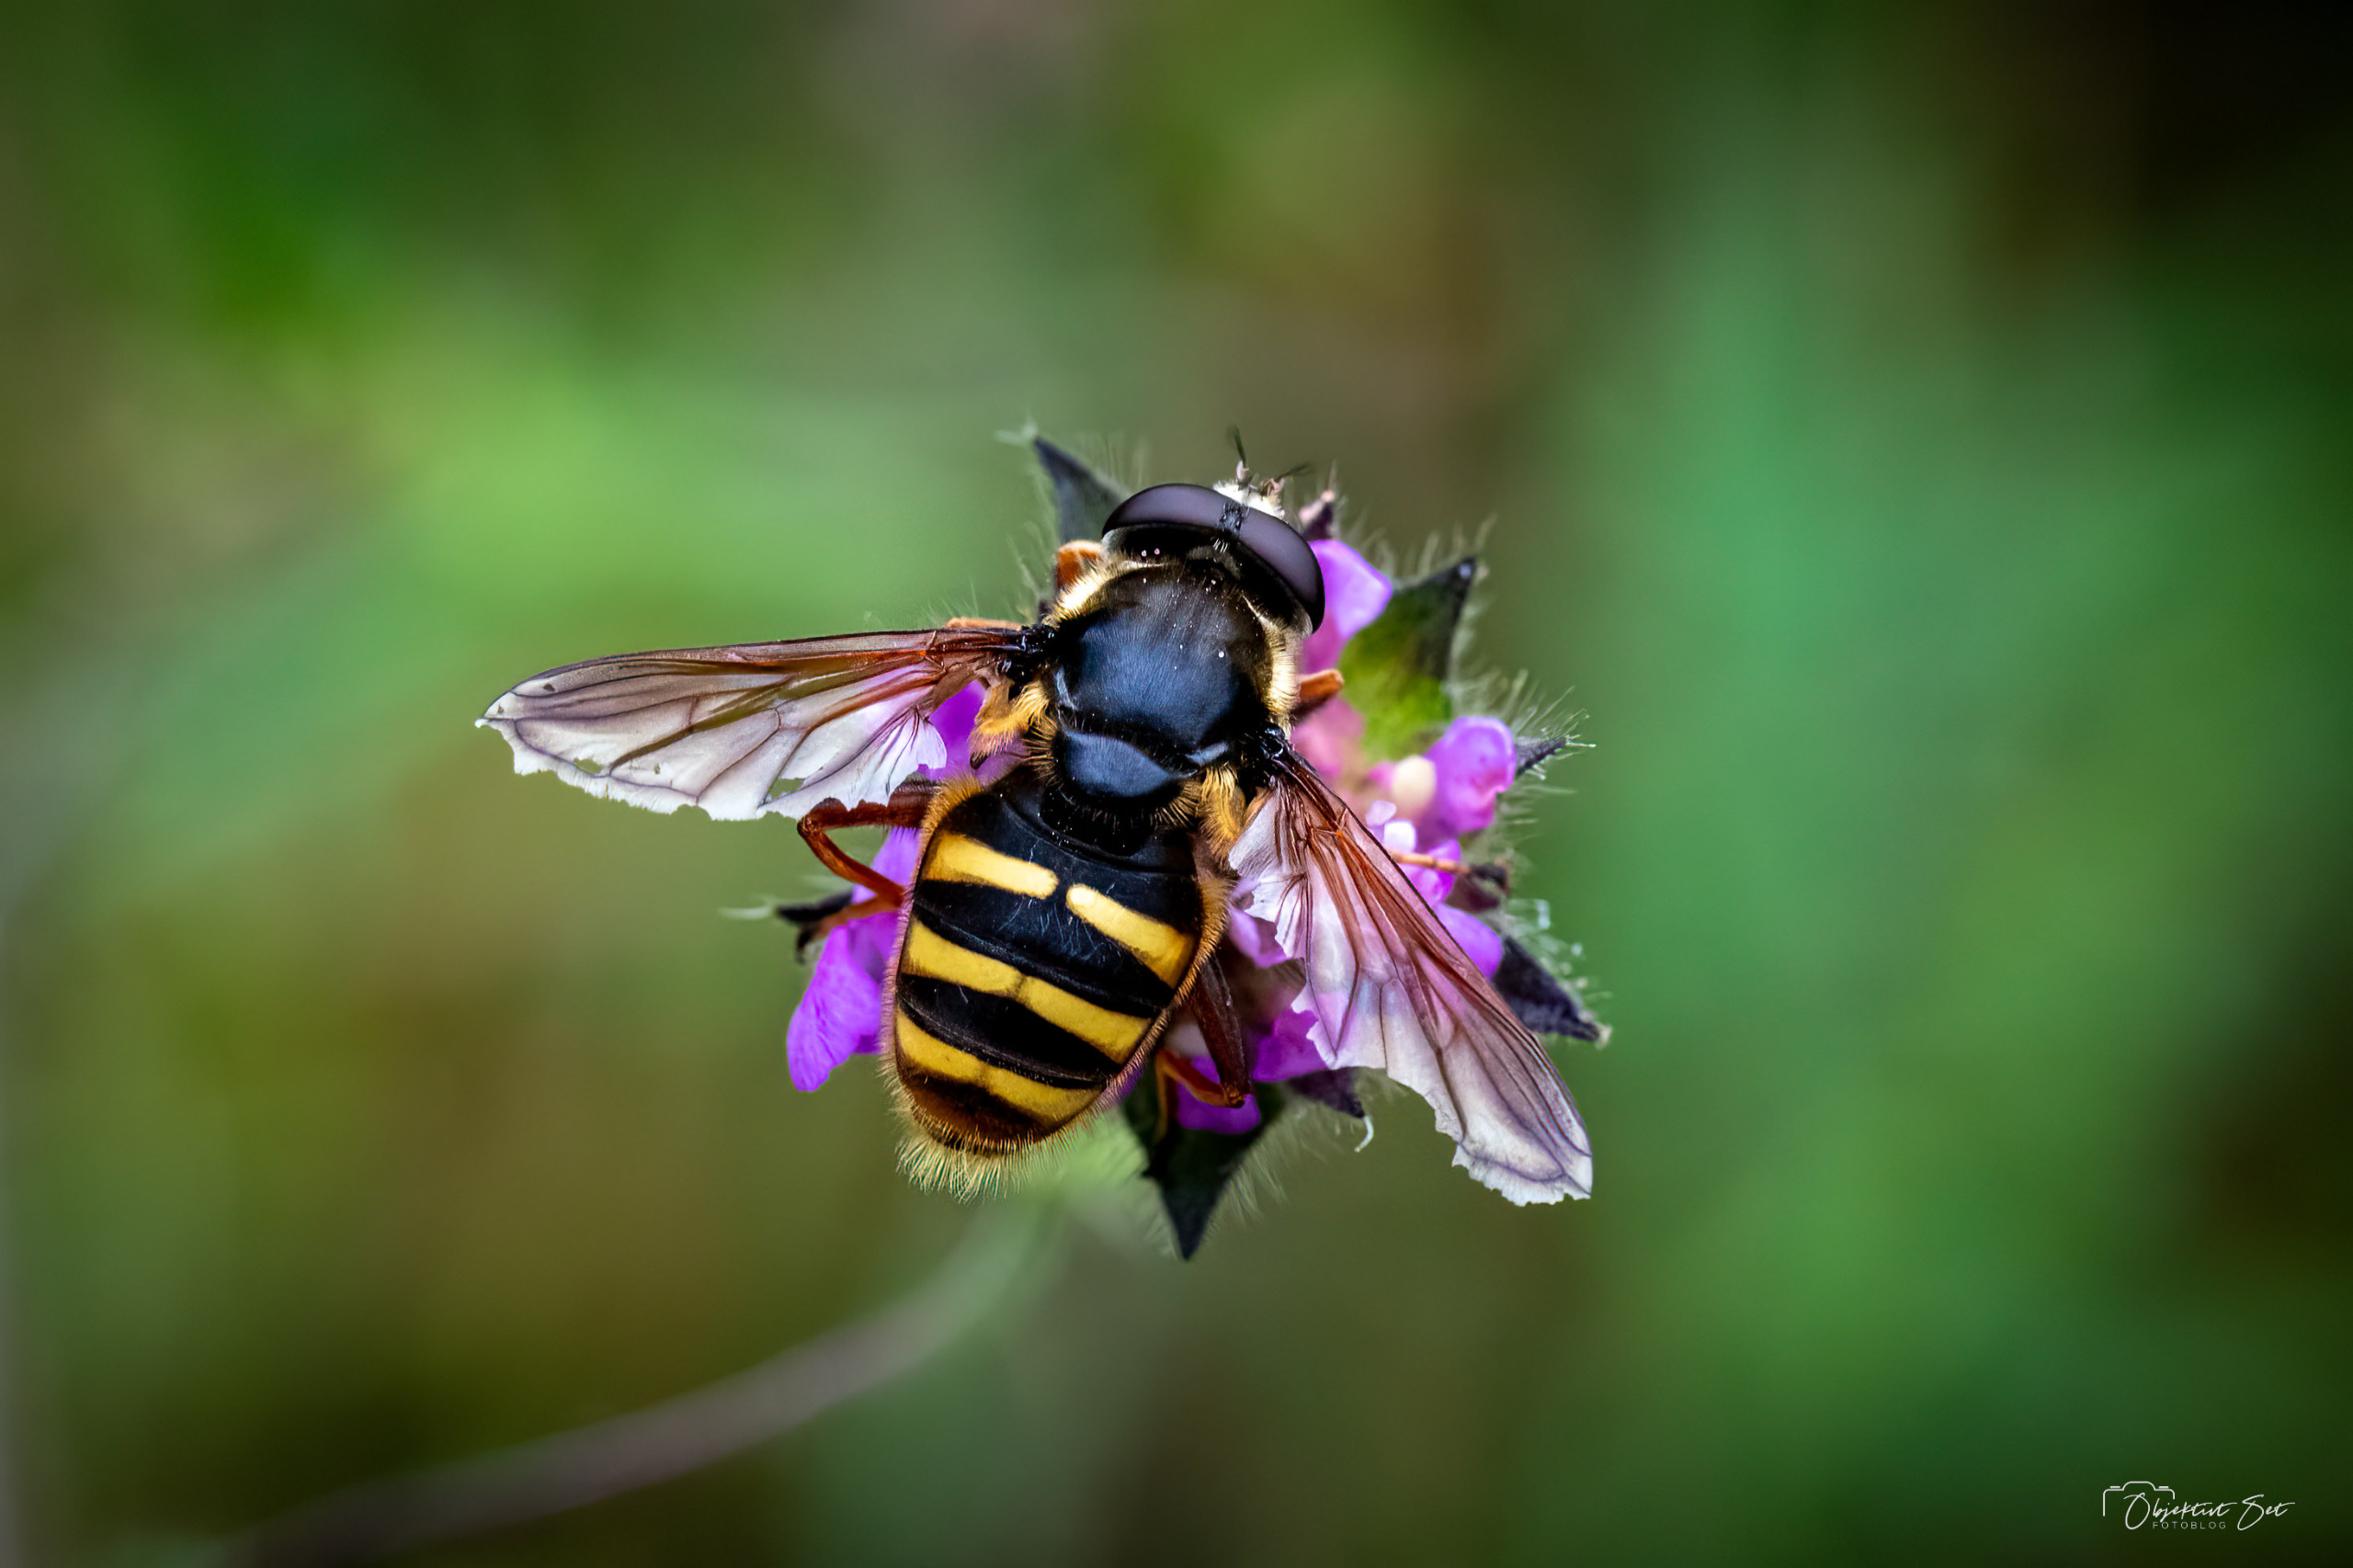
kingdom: Animalia
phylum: Arthropoda
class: Insecta
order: Diptera
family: Syrphidae
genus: Sericomyia
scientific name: Sericomyia silentis
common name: Tørve-silkesvirreflue
